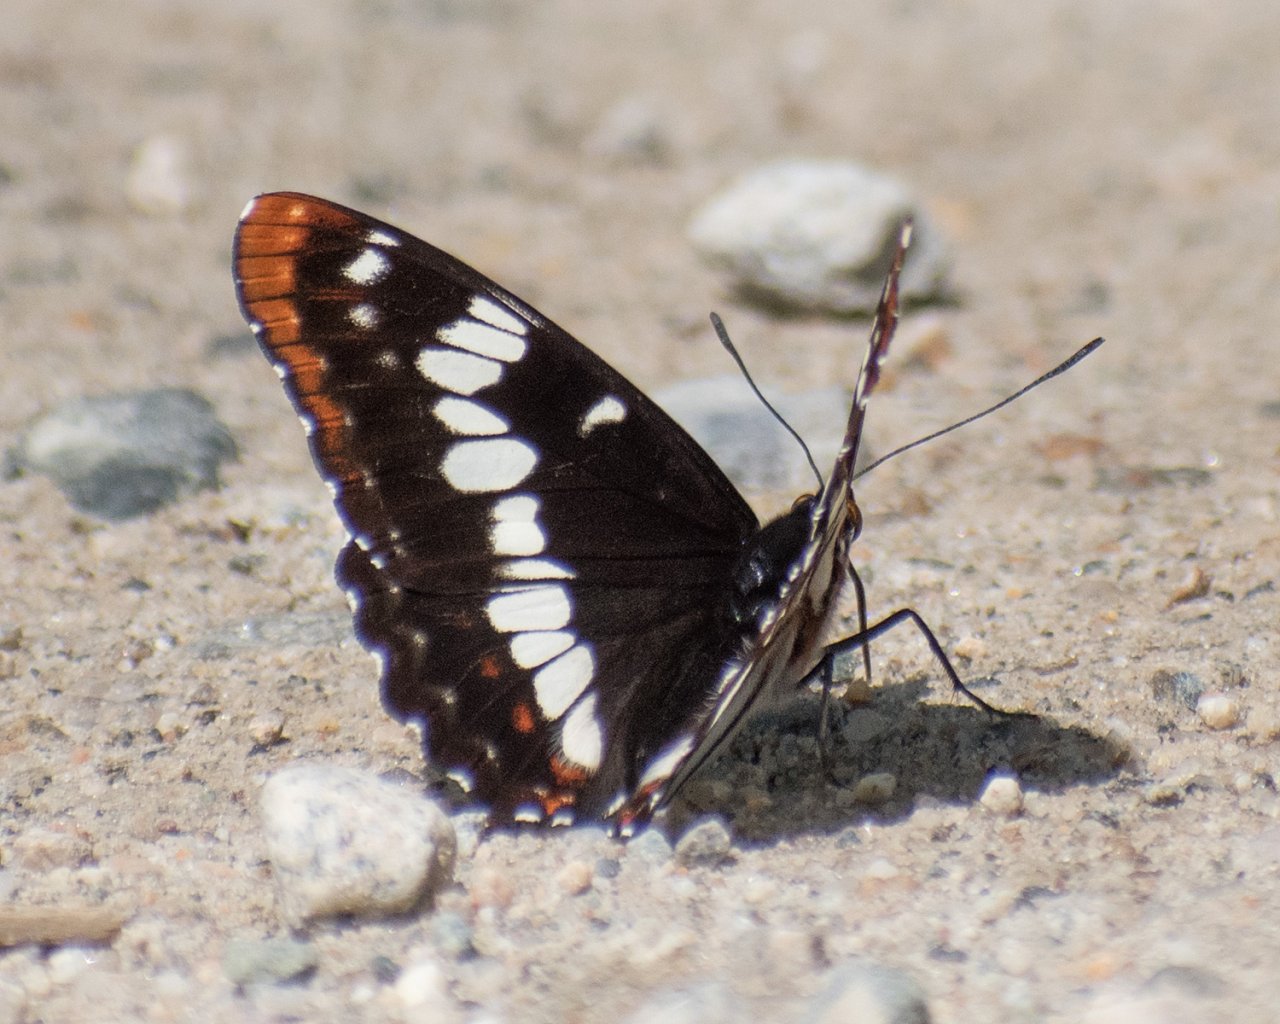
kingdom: Animalia
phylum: Arthropoda
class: Insecta
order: Lepidoptera
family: Nymphalidae
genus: Limenitis
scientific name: Limenitis lorquini
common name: Lorquin's Admiral
